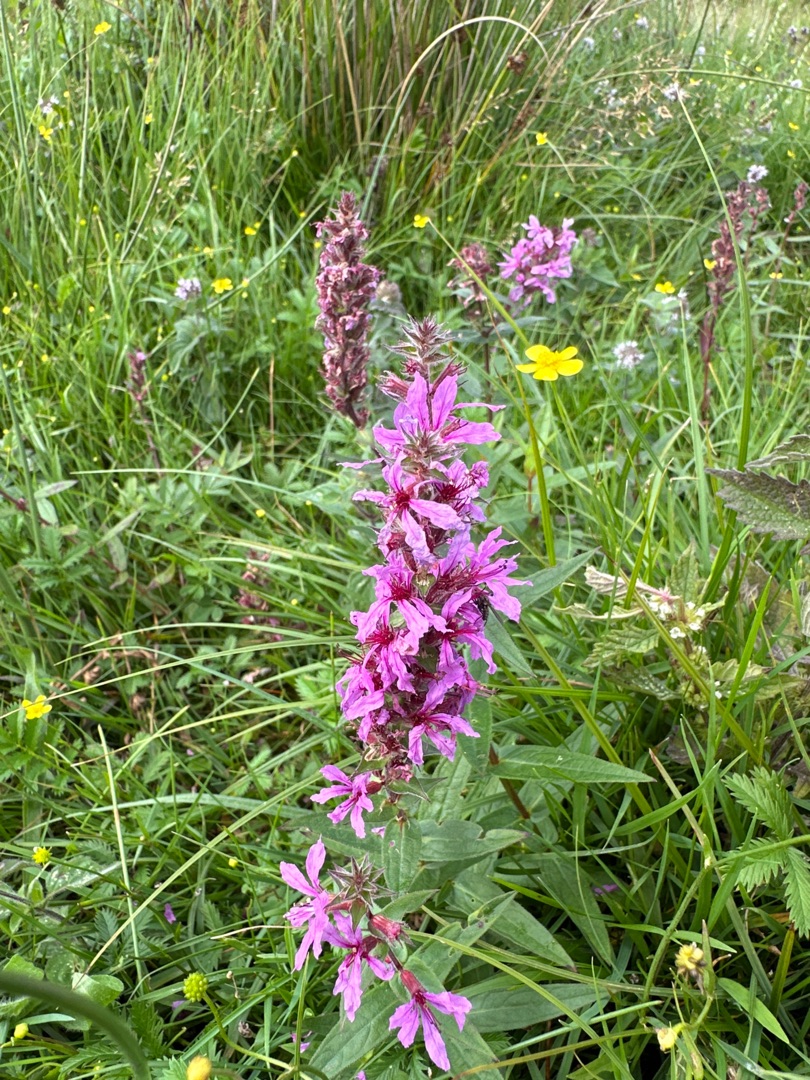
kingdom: Plantae
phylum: Tracheophyta
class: Magnoliopsida
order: Myrtales
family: Lythraceae
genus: Lythrum
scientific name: Lythrum salicaria
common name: Kattehale
